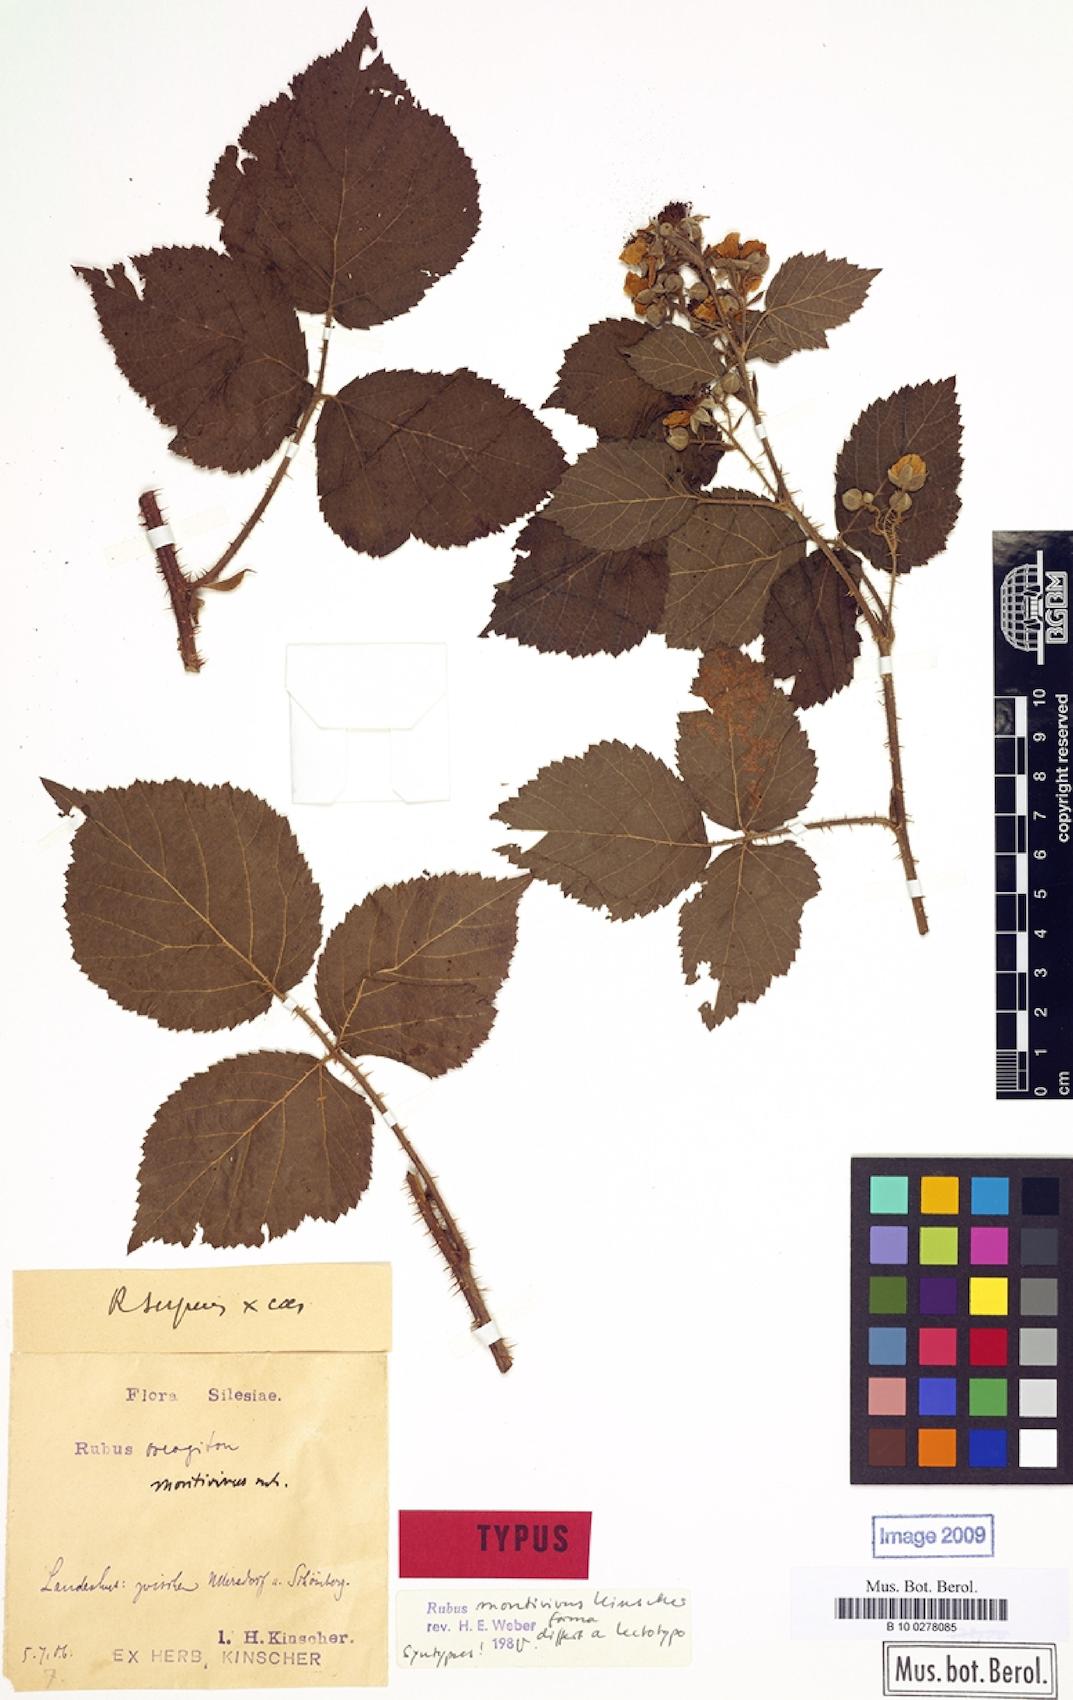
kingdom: Plantae
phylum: Tracheophyta
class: Magnoliopsida
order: Rosales
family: Rosaceae
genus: Rubus
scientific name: Rubus dollnensis
